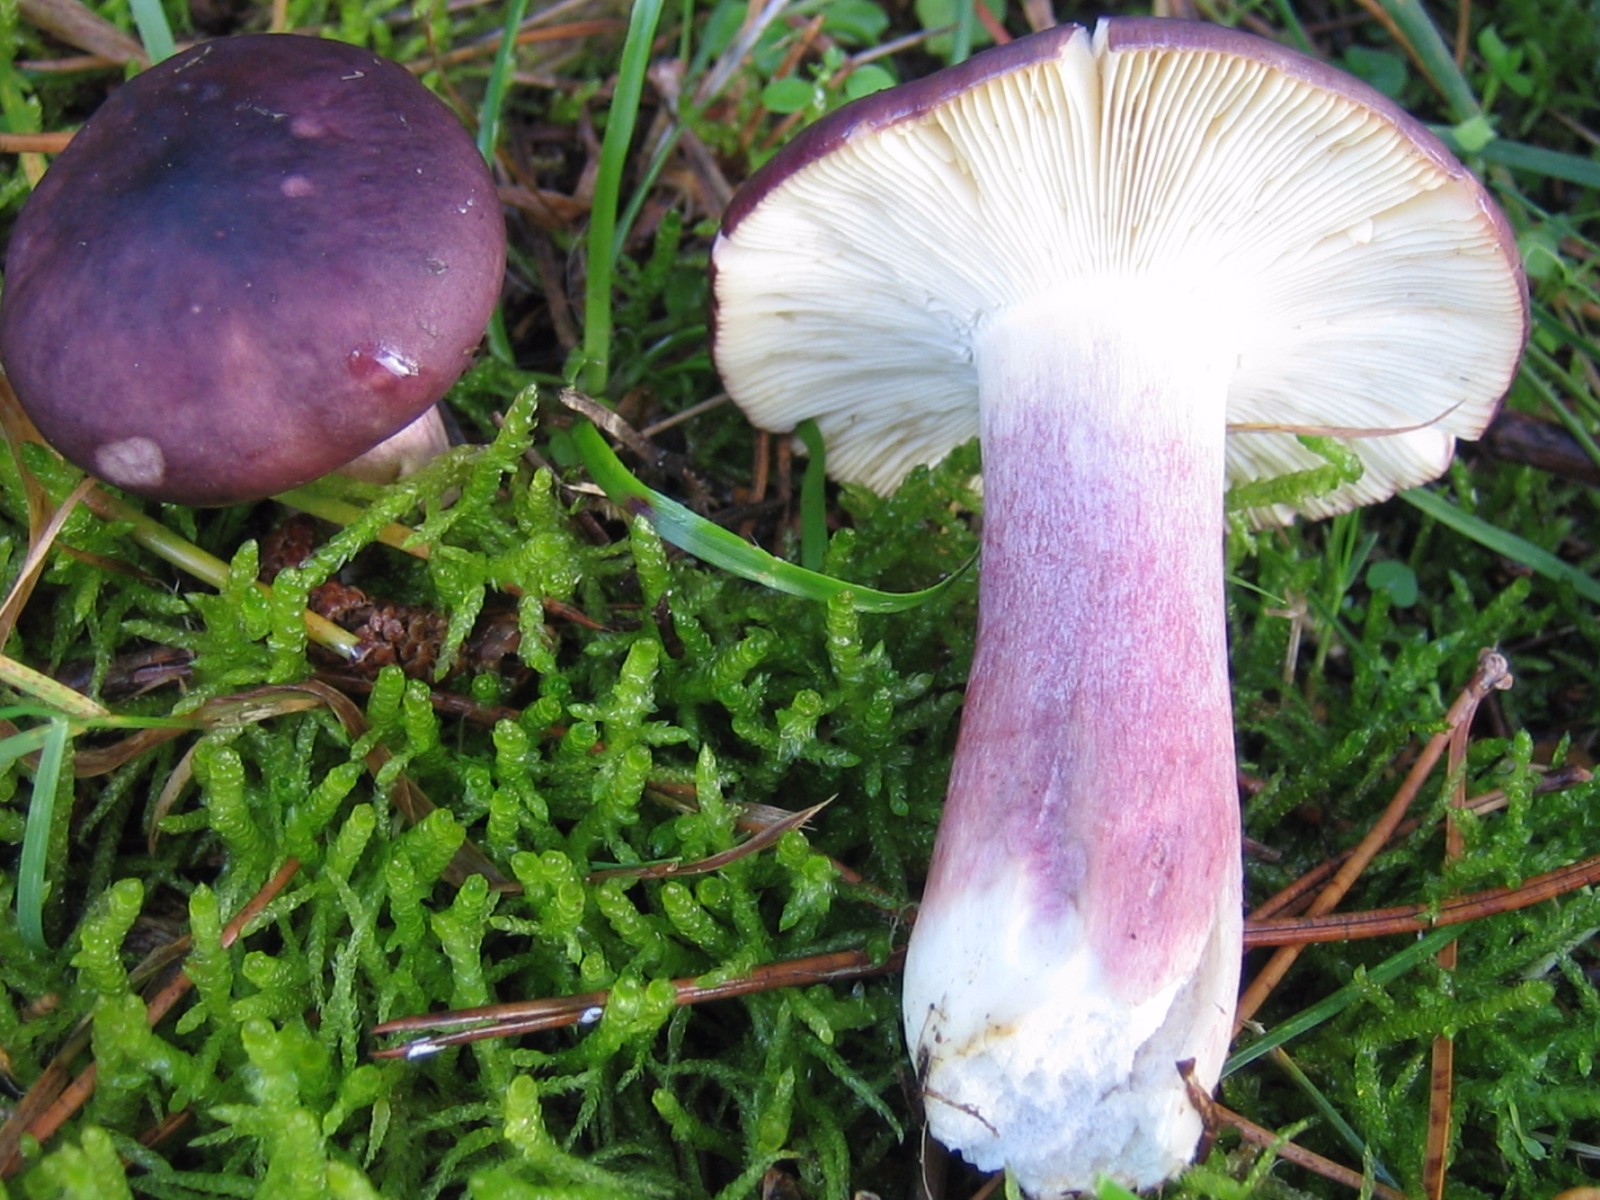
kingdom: Fungi
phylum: Basidiomycota
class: Agaricomycetes
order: Russulales
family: Russulaceae
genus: Russula
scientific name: Russula sardonia
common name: citronbladet skørhat
